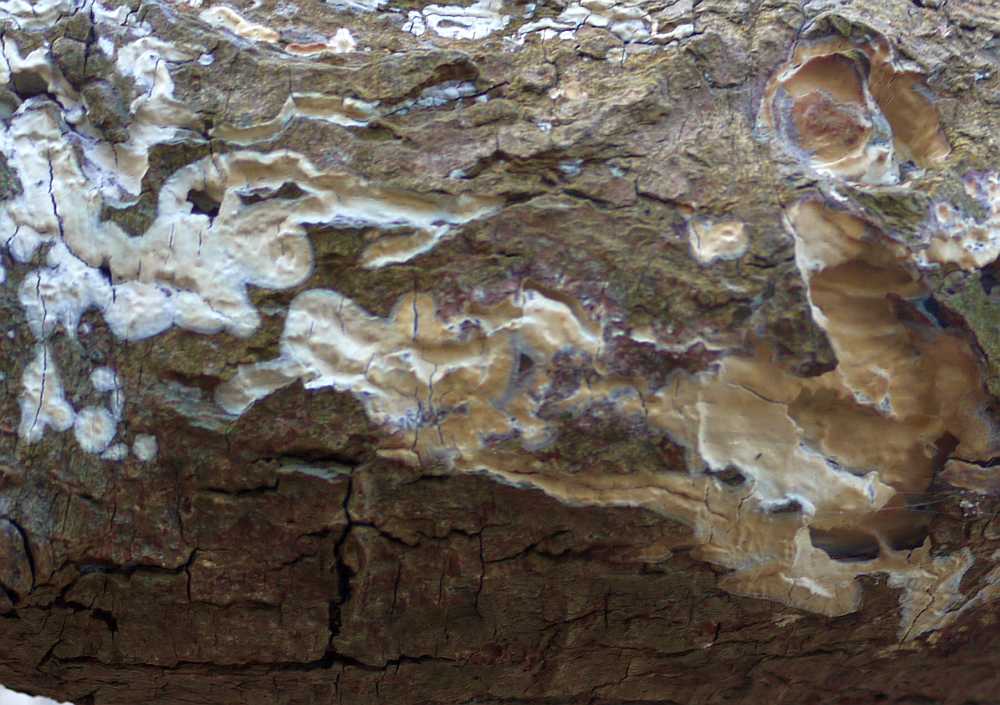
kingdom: Fungi
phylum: Basidiomycota
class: Agaricomycetes
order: Agaricales
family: Radulomycetaceae
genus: Radulomyces
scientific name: Radulomyces confluens
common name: glat naftalinskind
